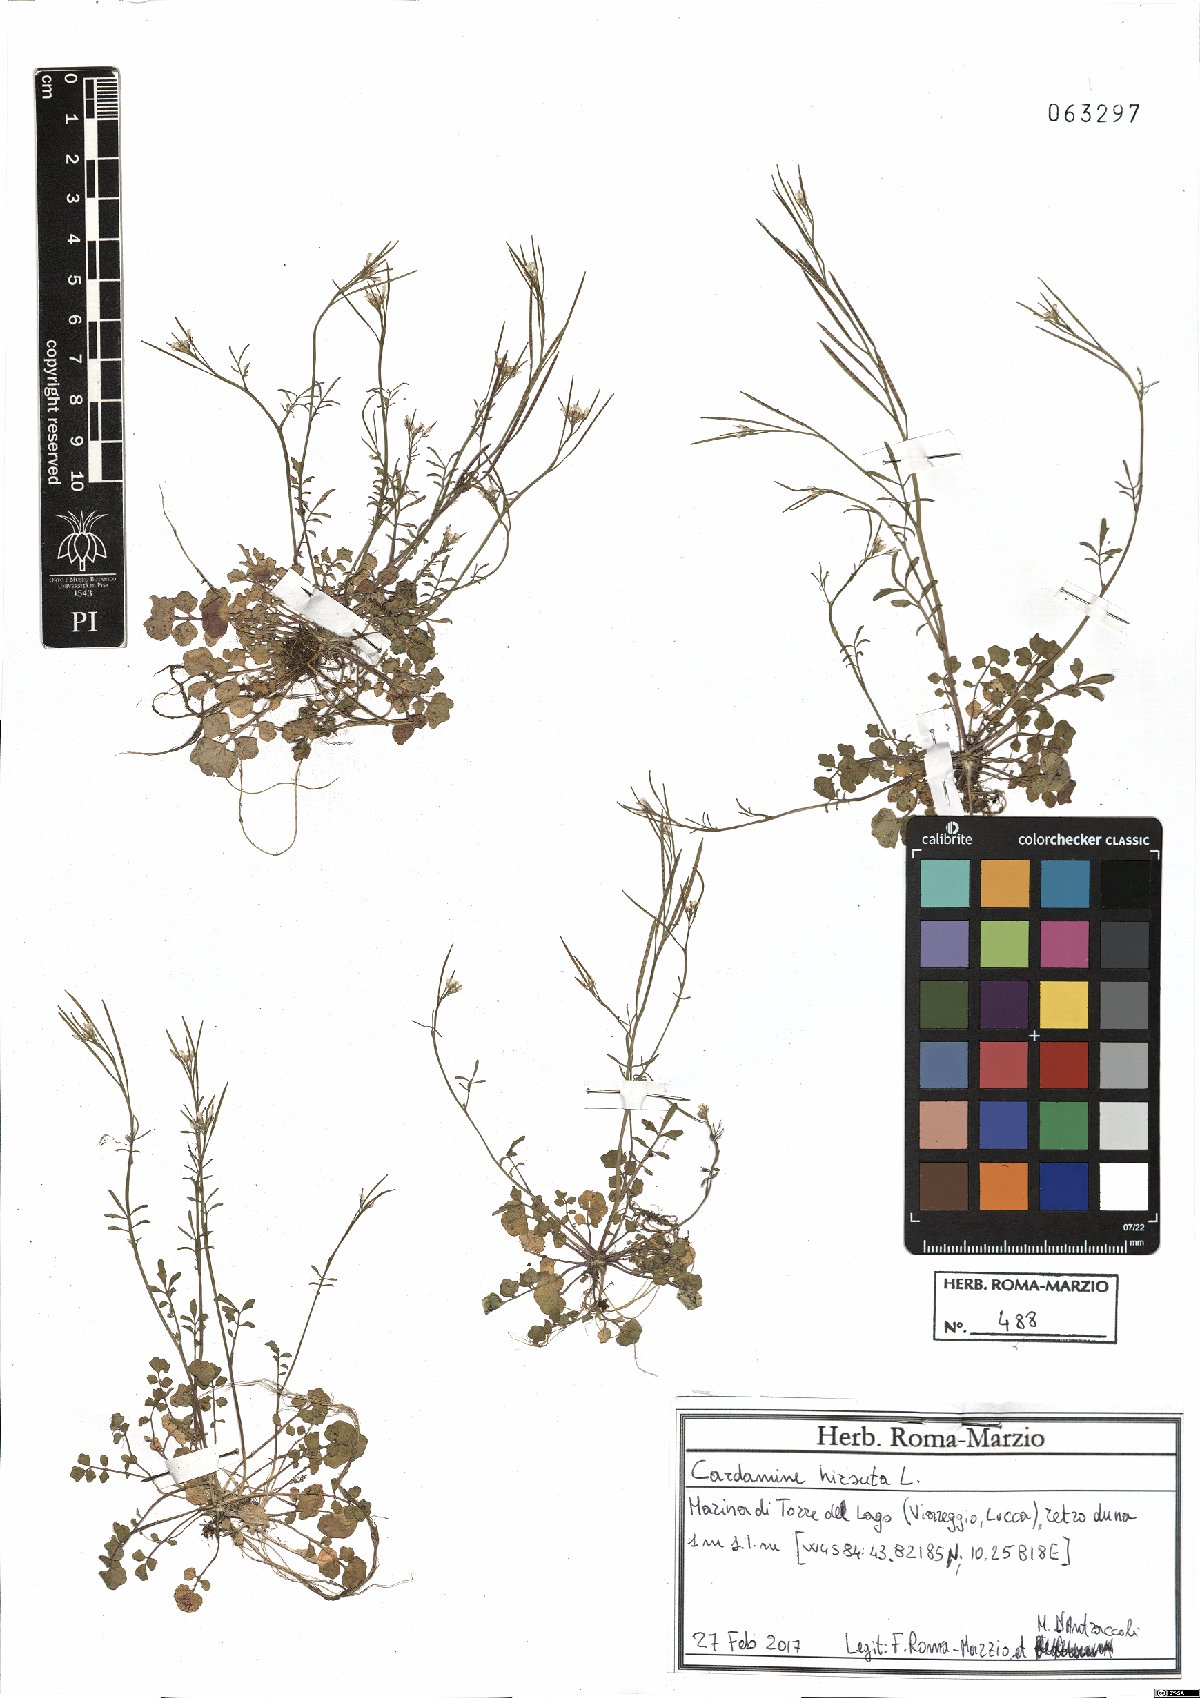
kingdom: Plantae
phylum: Tracheophyta
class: Magnoliopsida
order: Brassicales
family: Brassicaceae
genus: Cardamine
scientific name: Cardamine hirsuta
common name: Hairy bittercress
